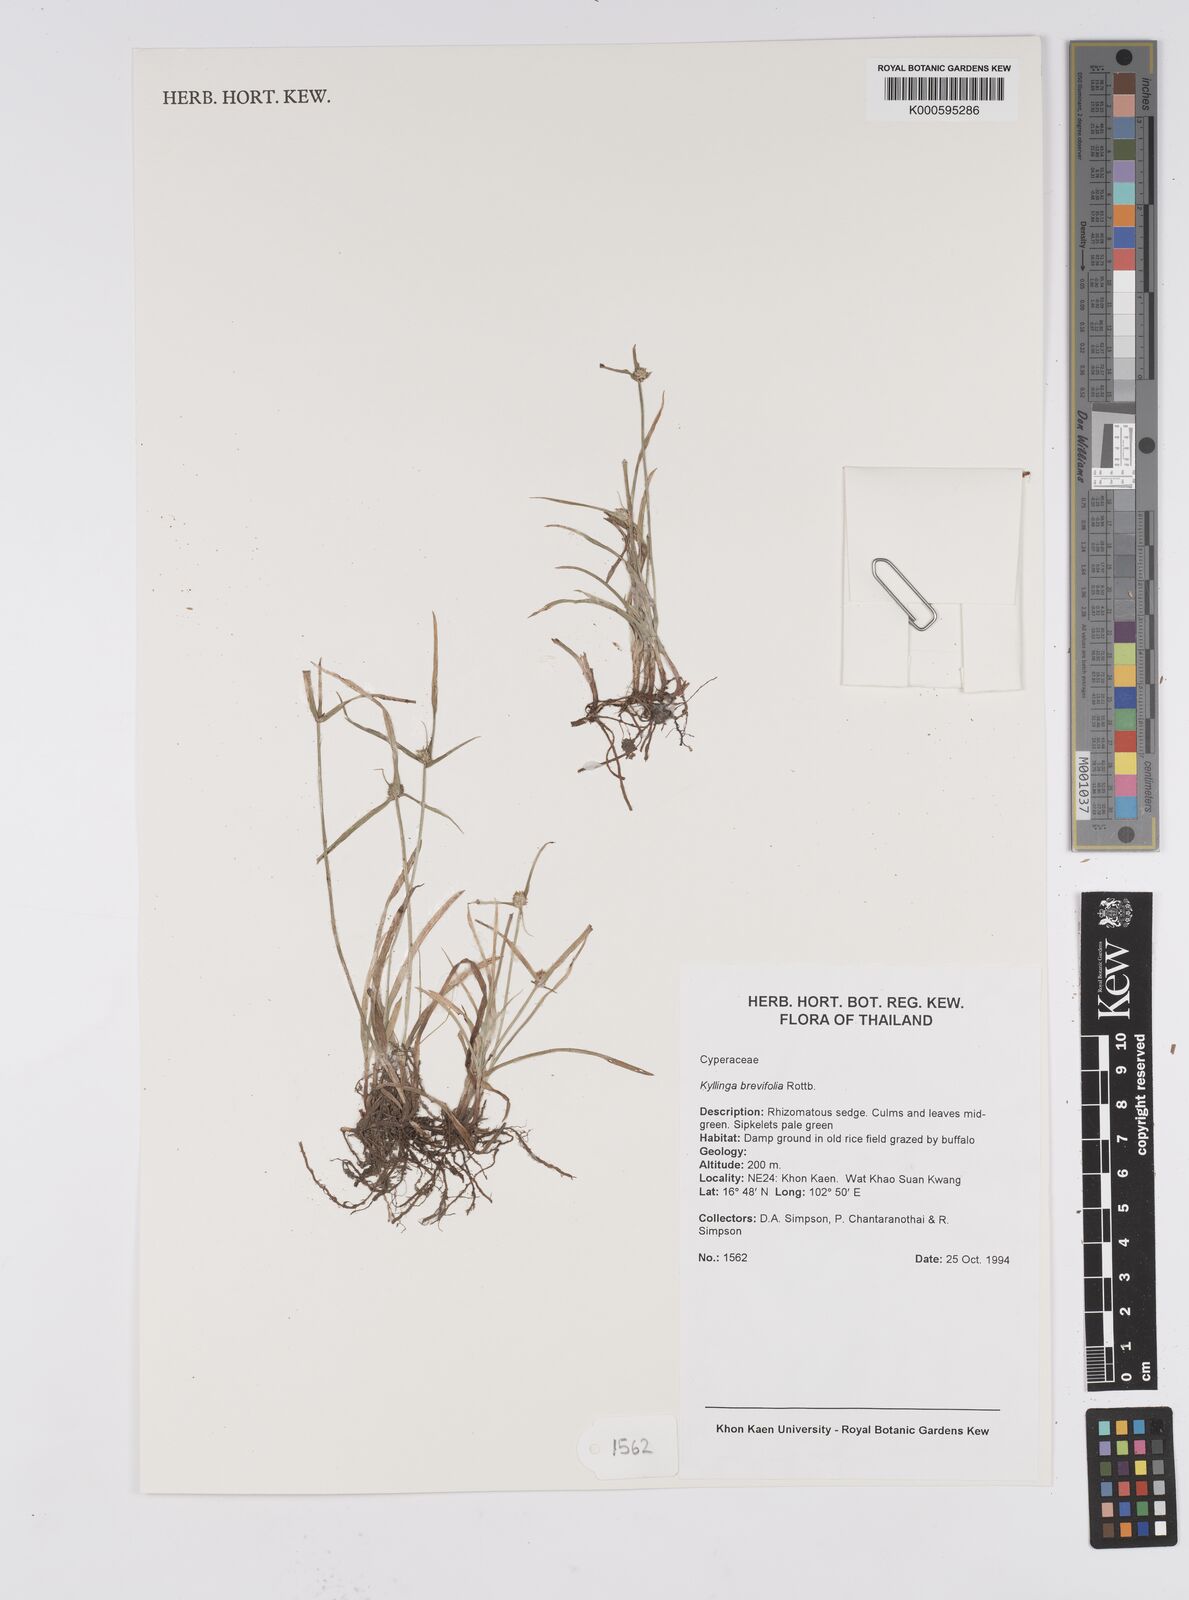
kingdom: Plantae
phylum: Tracheophyta
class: Liliopsida
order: Poales
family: Cyperaceae
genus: Cyperus
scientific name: Cyperus brevifolius
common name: Globe kyllinga
